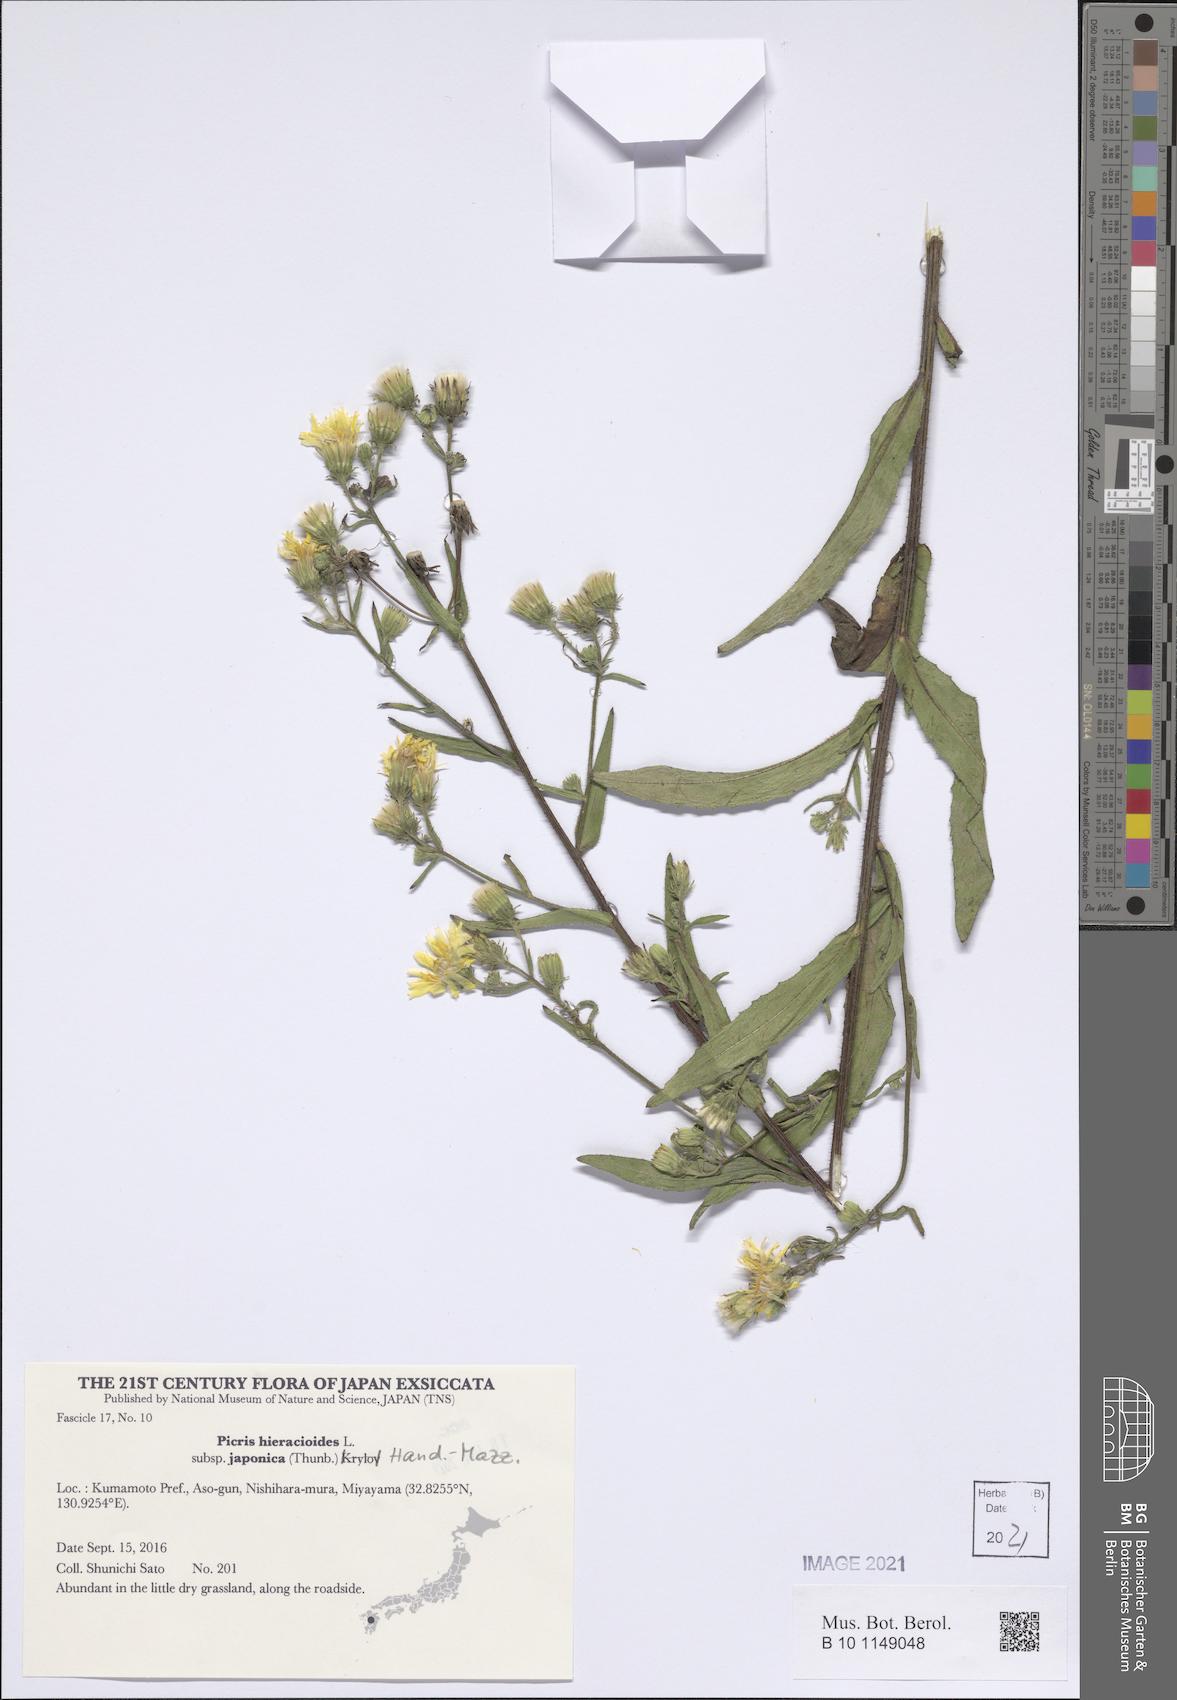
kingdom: Plantae
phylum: Tracheophyta
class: Magnoliopsida
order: Asterales
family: Asteraceae
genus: Picris
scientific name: Picris japonica
